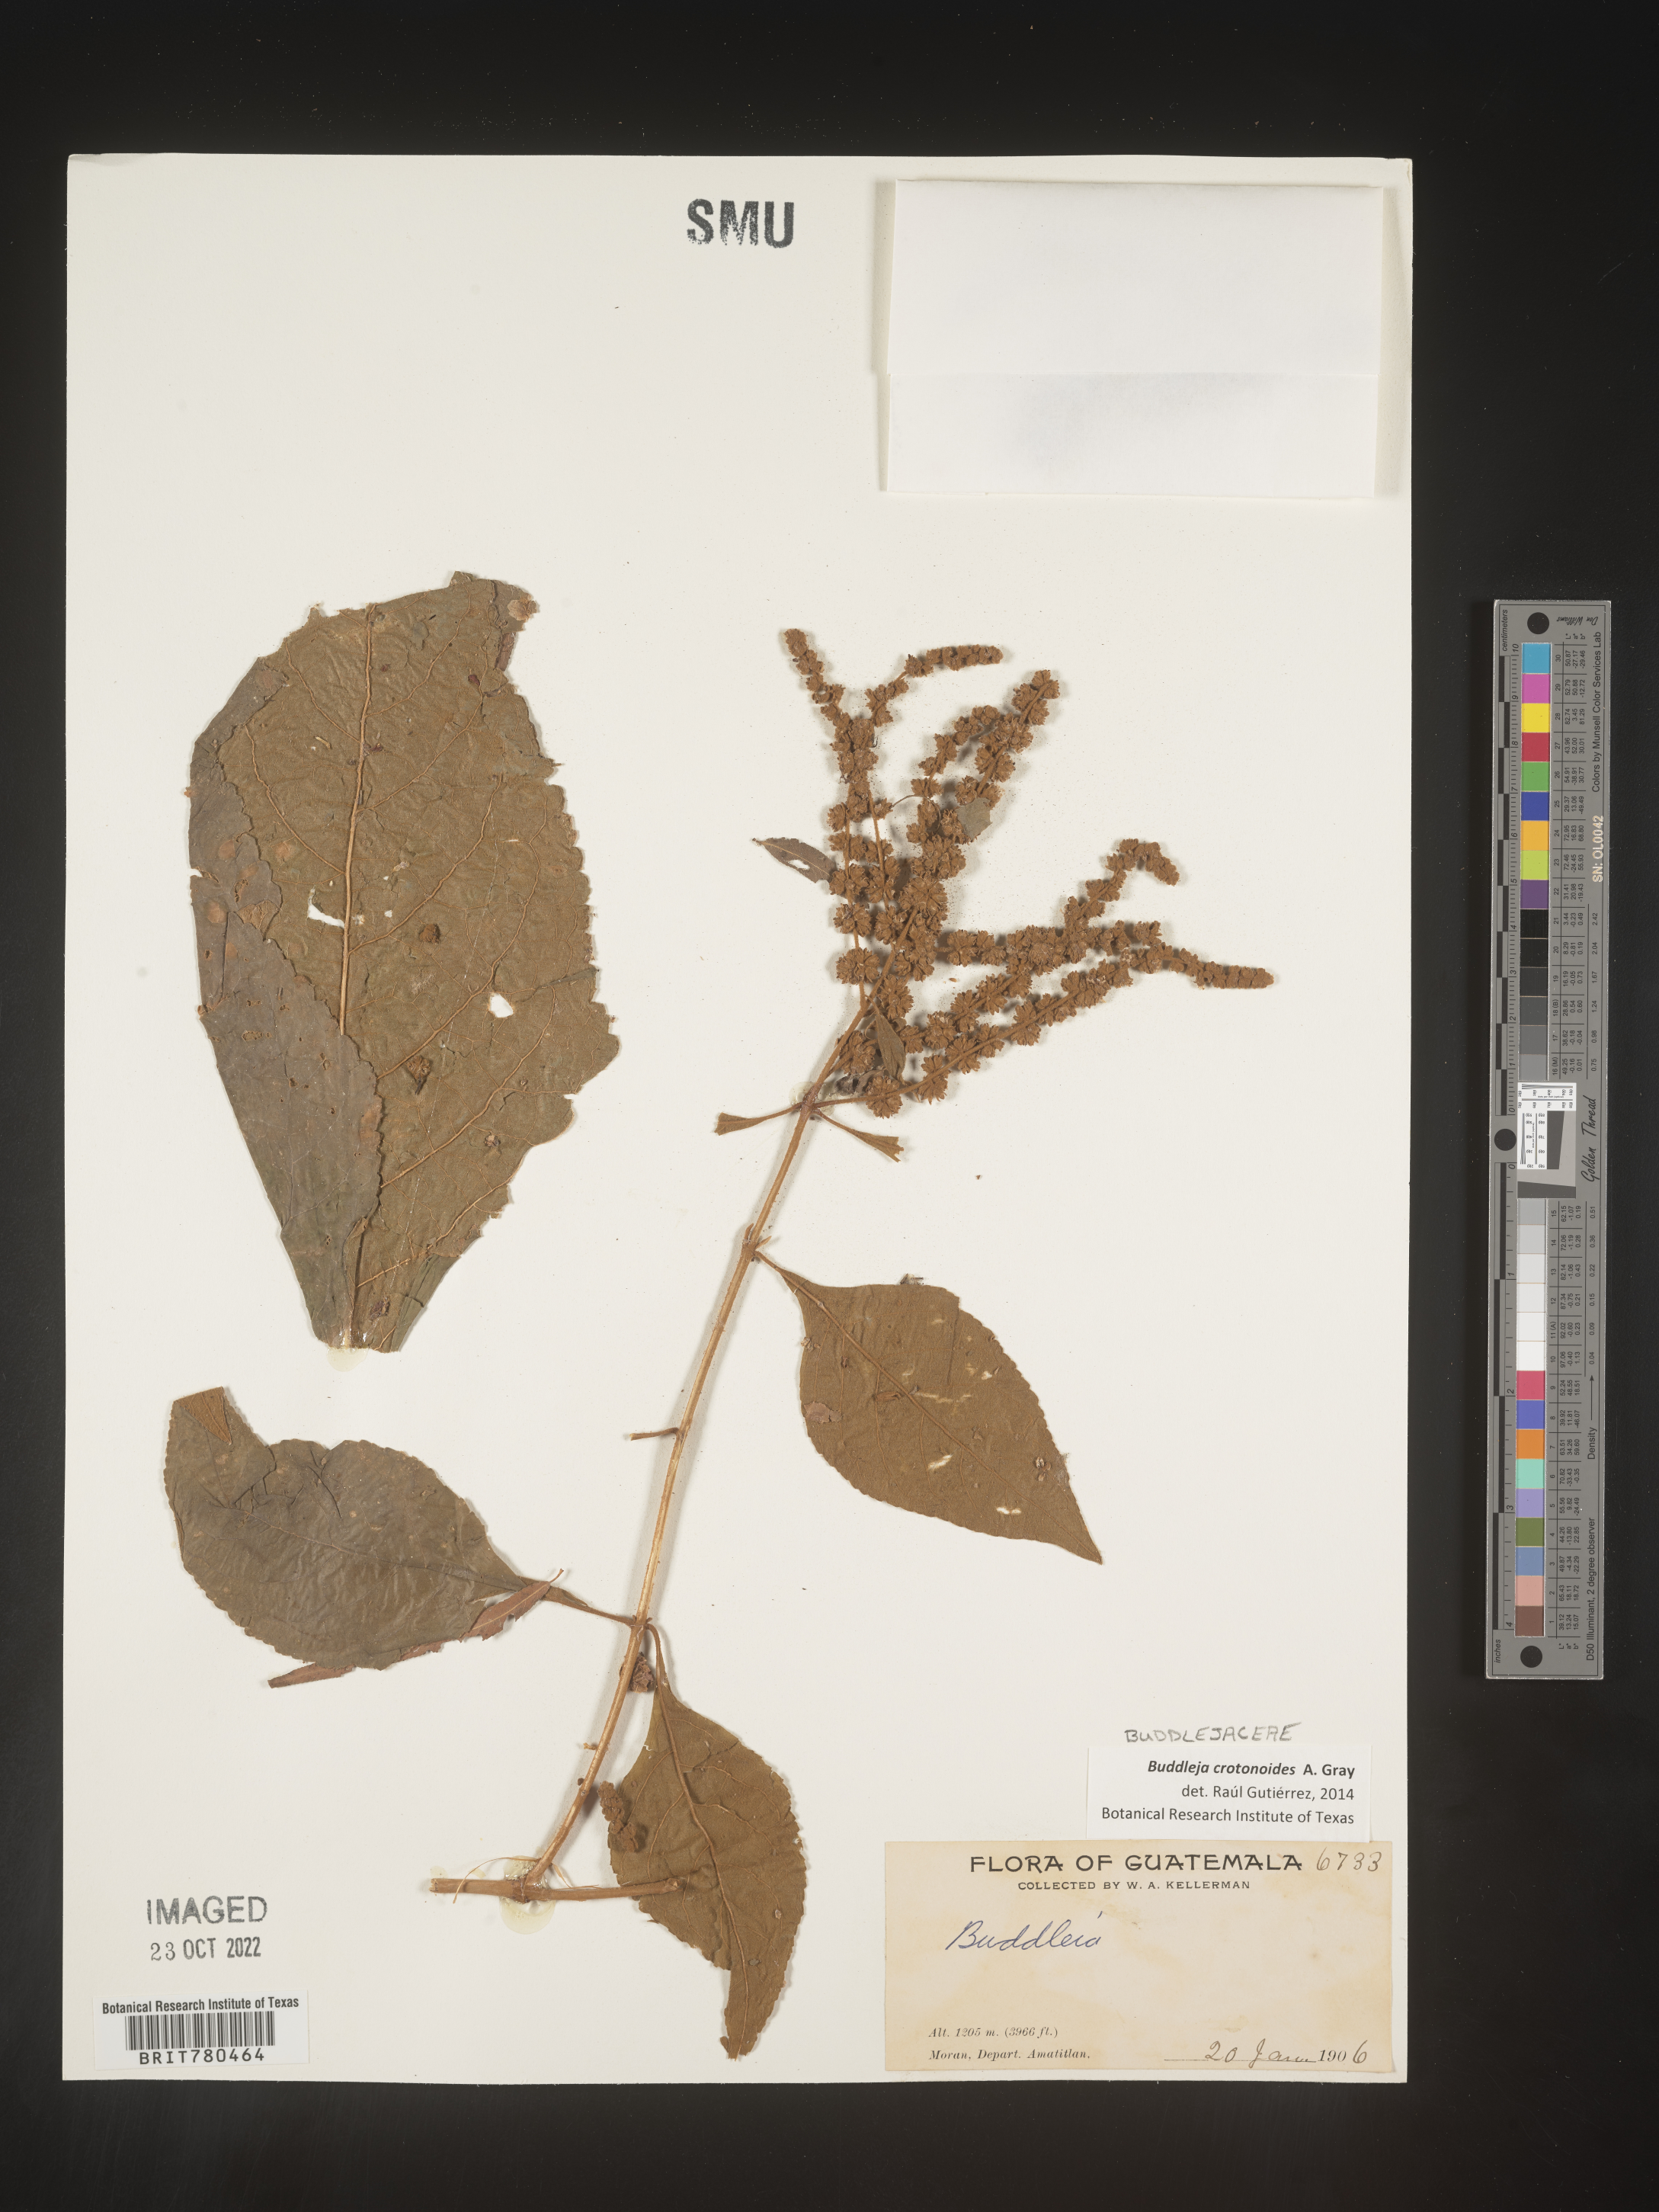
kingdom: Plantae
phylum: Tracheophyta
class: Magnoliopsida
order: Lamiales
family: Scrophulariaceae
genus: Buddleja
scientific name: Buddleja
